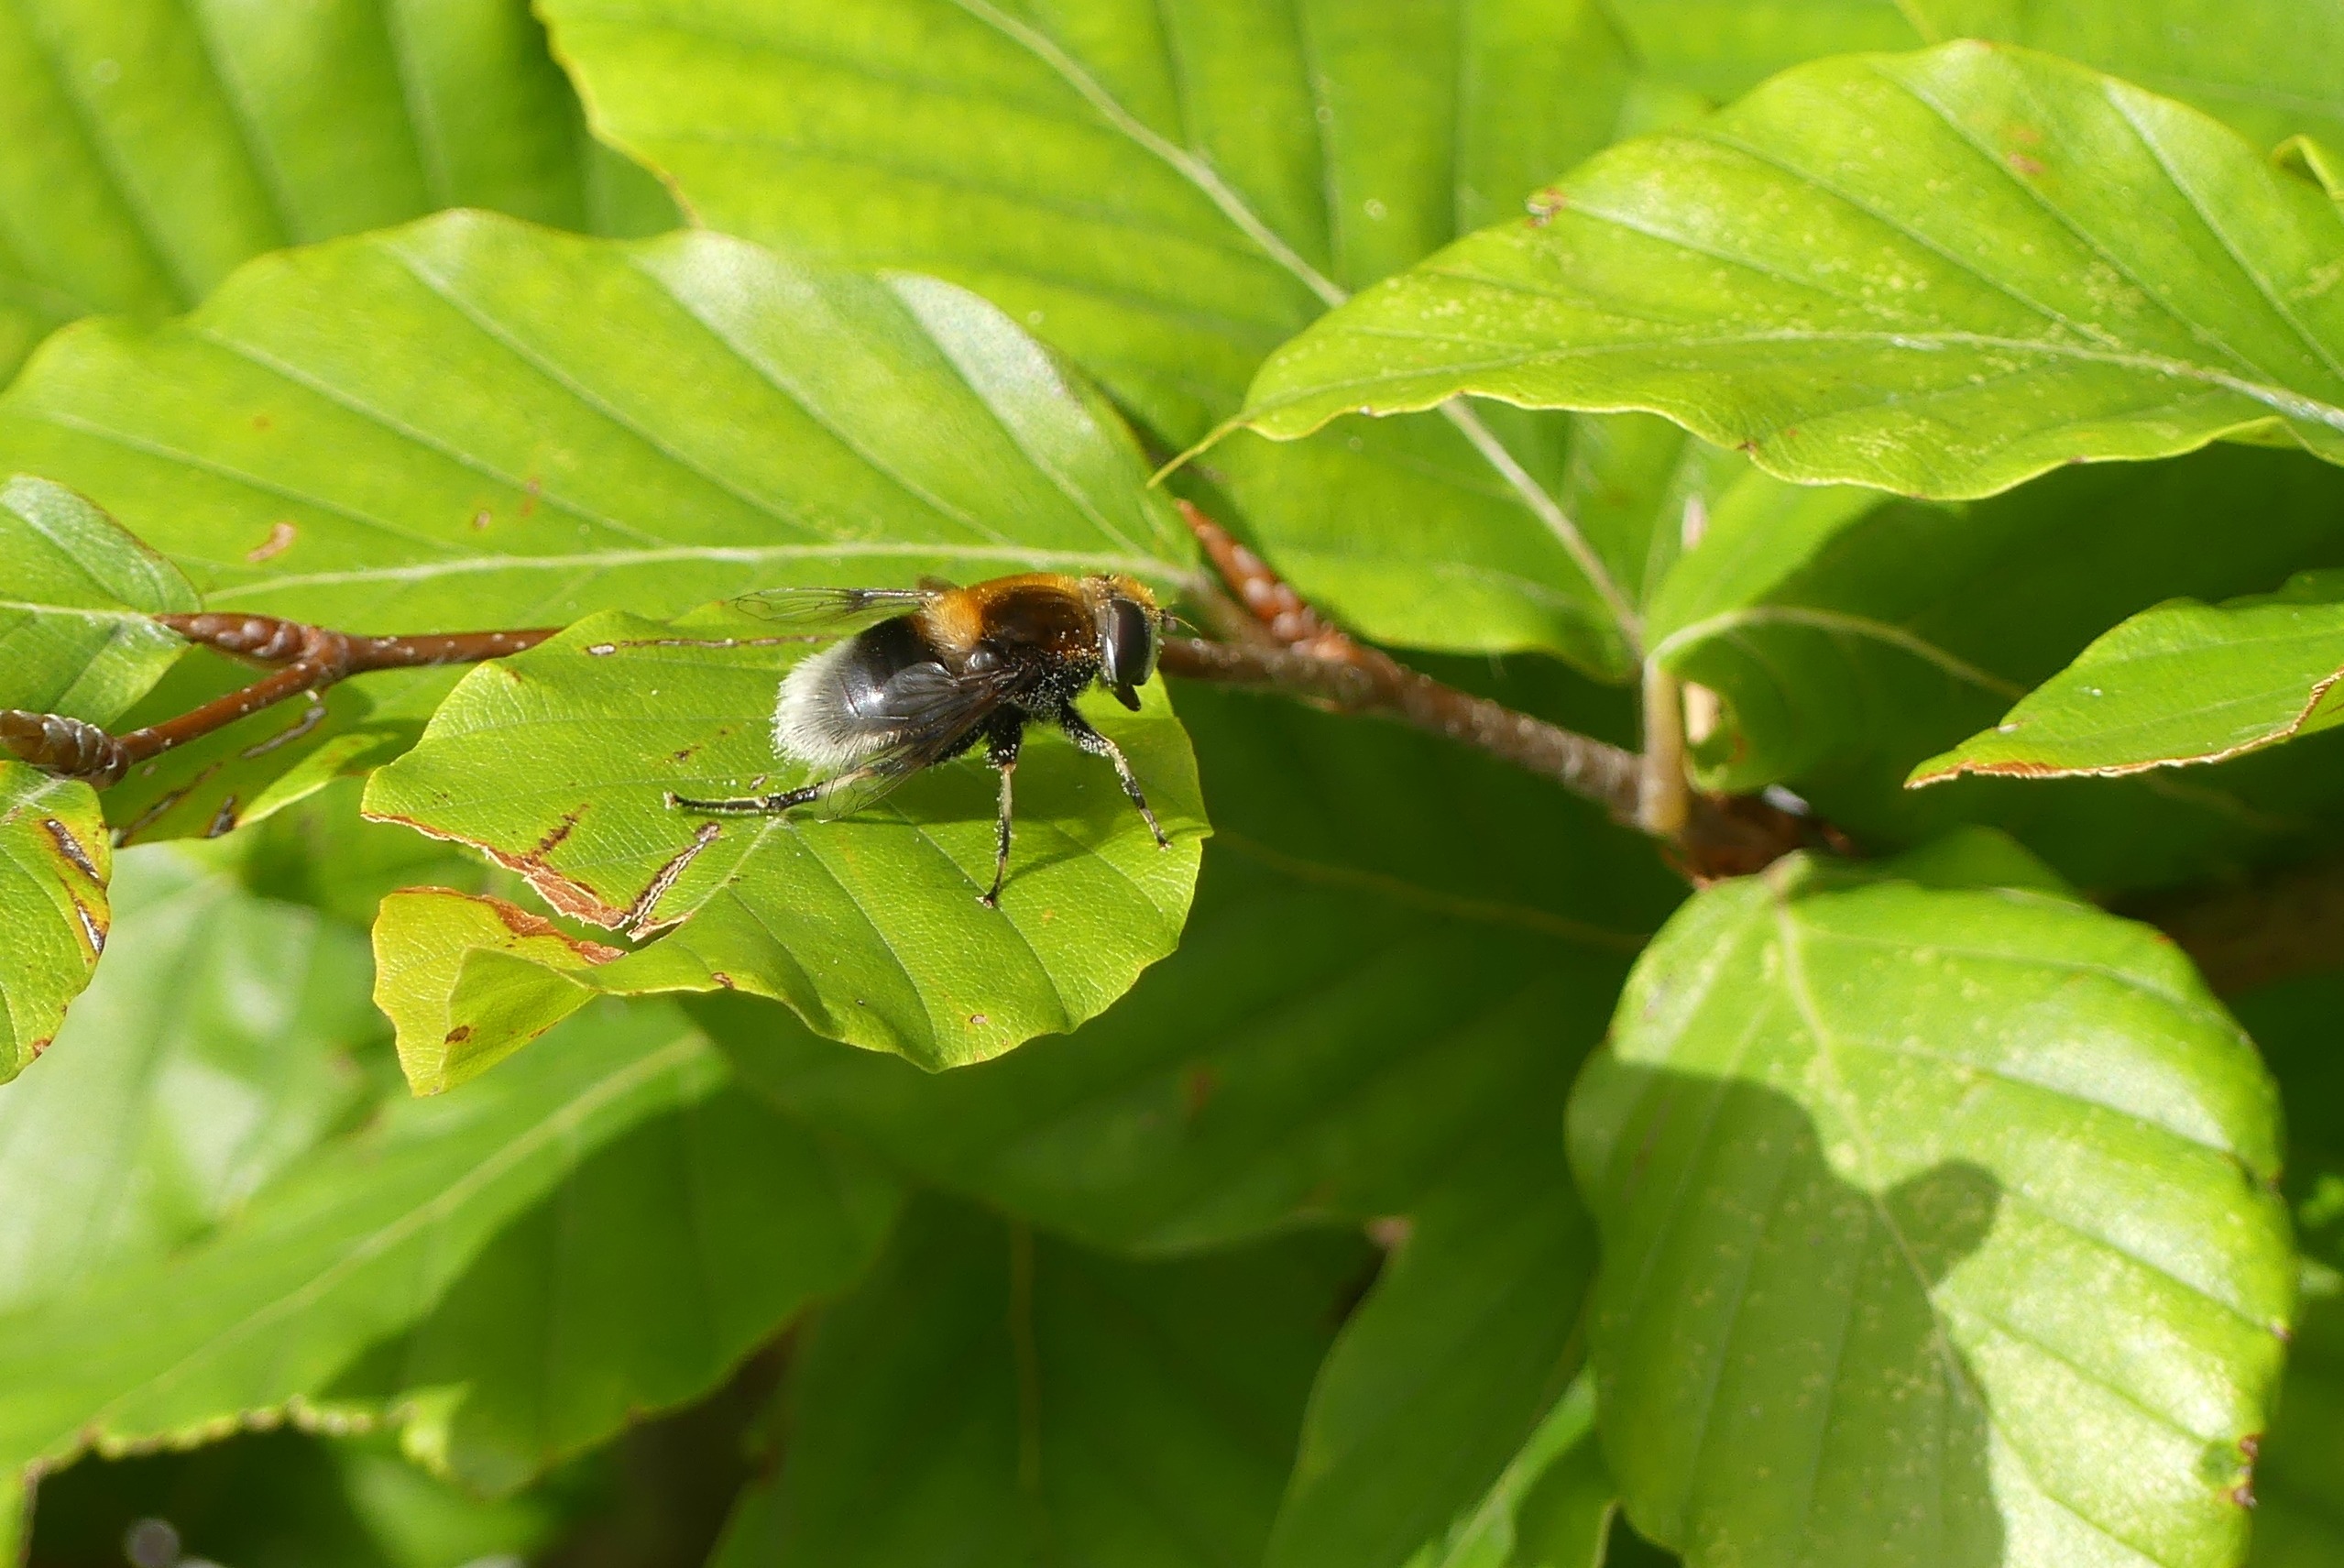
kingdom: Animalia
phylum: Arthropoda
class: Insecta
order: Diptera
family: Syrphidae
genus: Eristalis
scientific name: Eristalis intricaria
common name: Håret dyndflue
